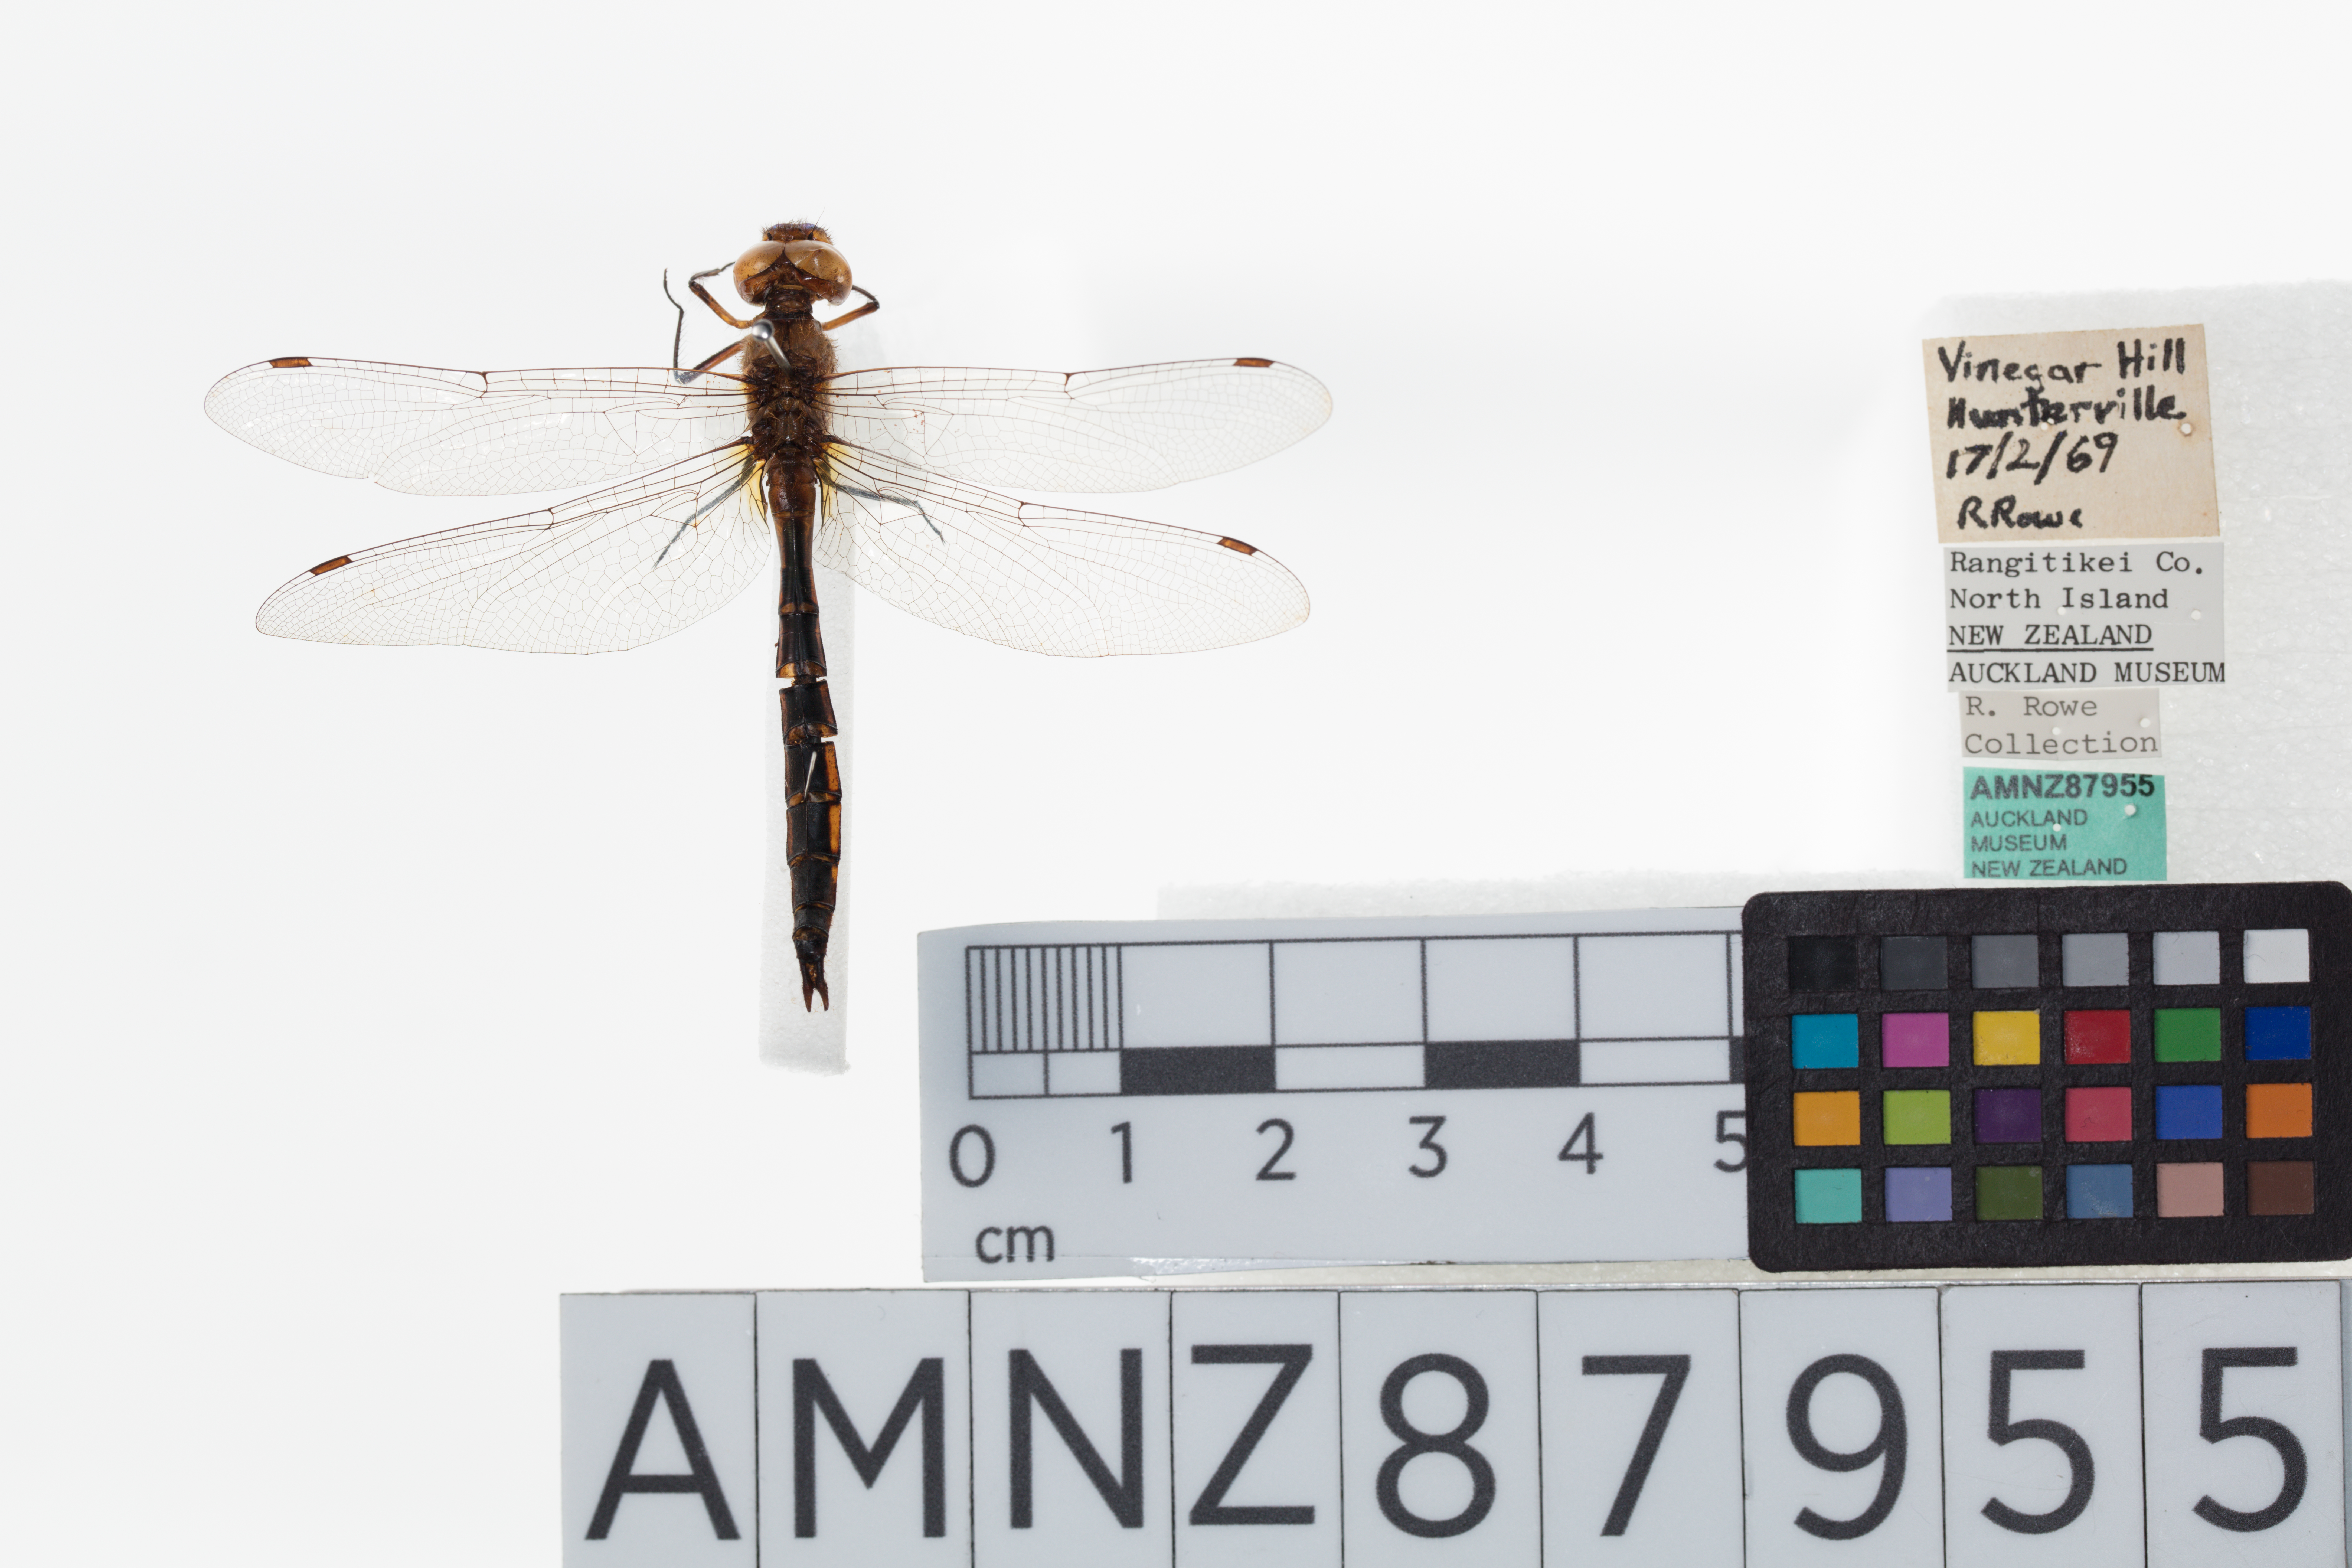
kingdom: Animalia
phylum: Arthropoda
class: Insecta
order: Odonata
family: Corduliidae
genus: Procordulia
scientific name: Procordulia smithii
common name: Ranger dragonfly
